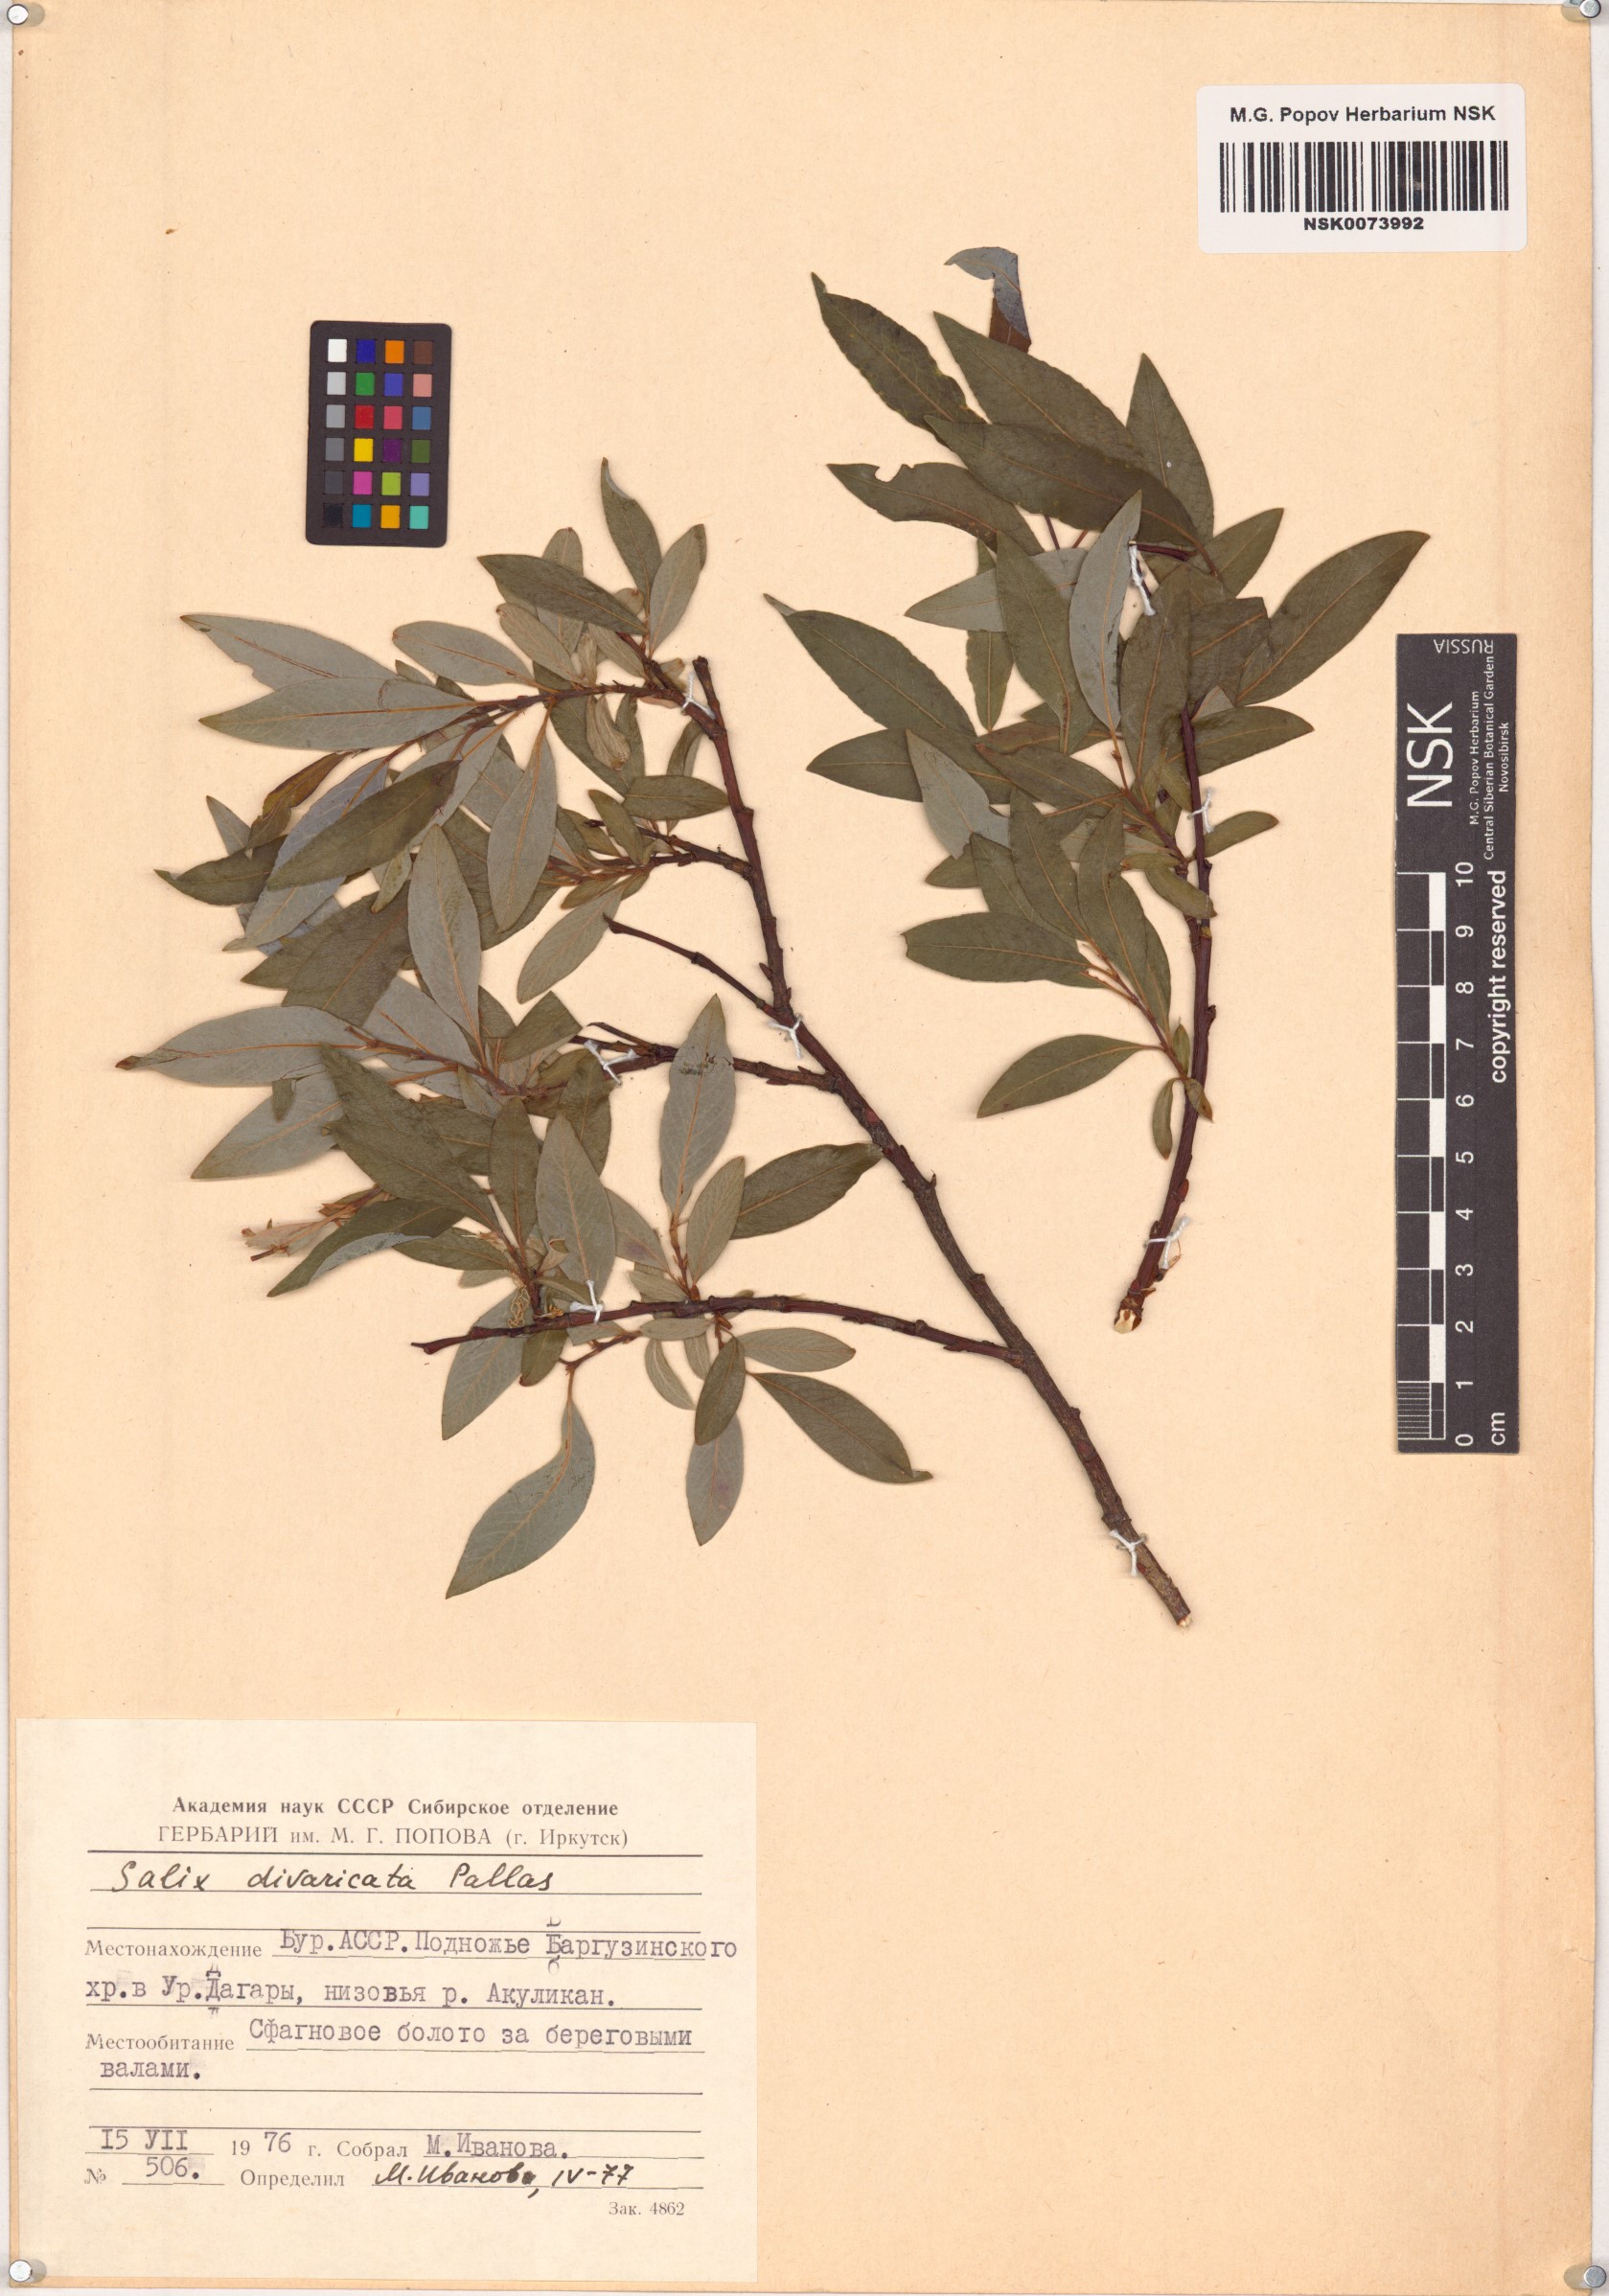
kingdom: Plantae
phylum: Tracheophyta
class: Magnoliopsida
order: Malpighiales
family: Salicaceae
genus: Salix
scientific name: Salix divaricata
